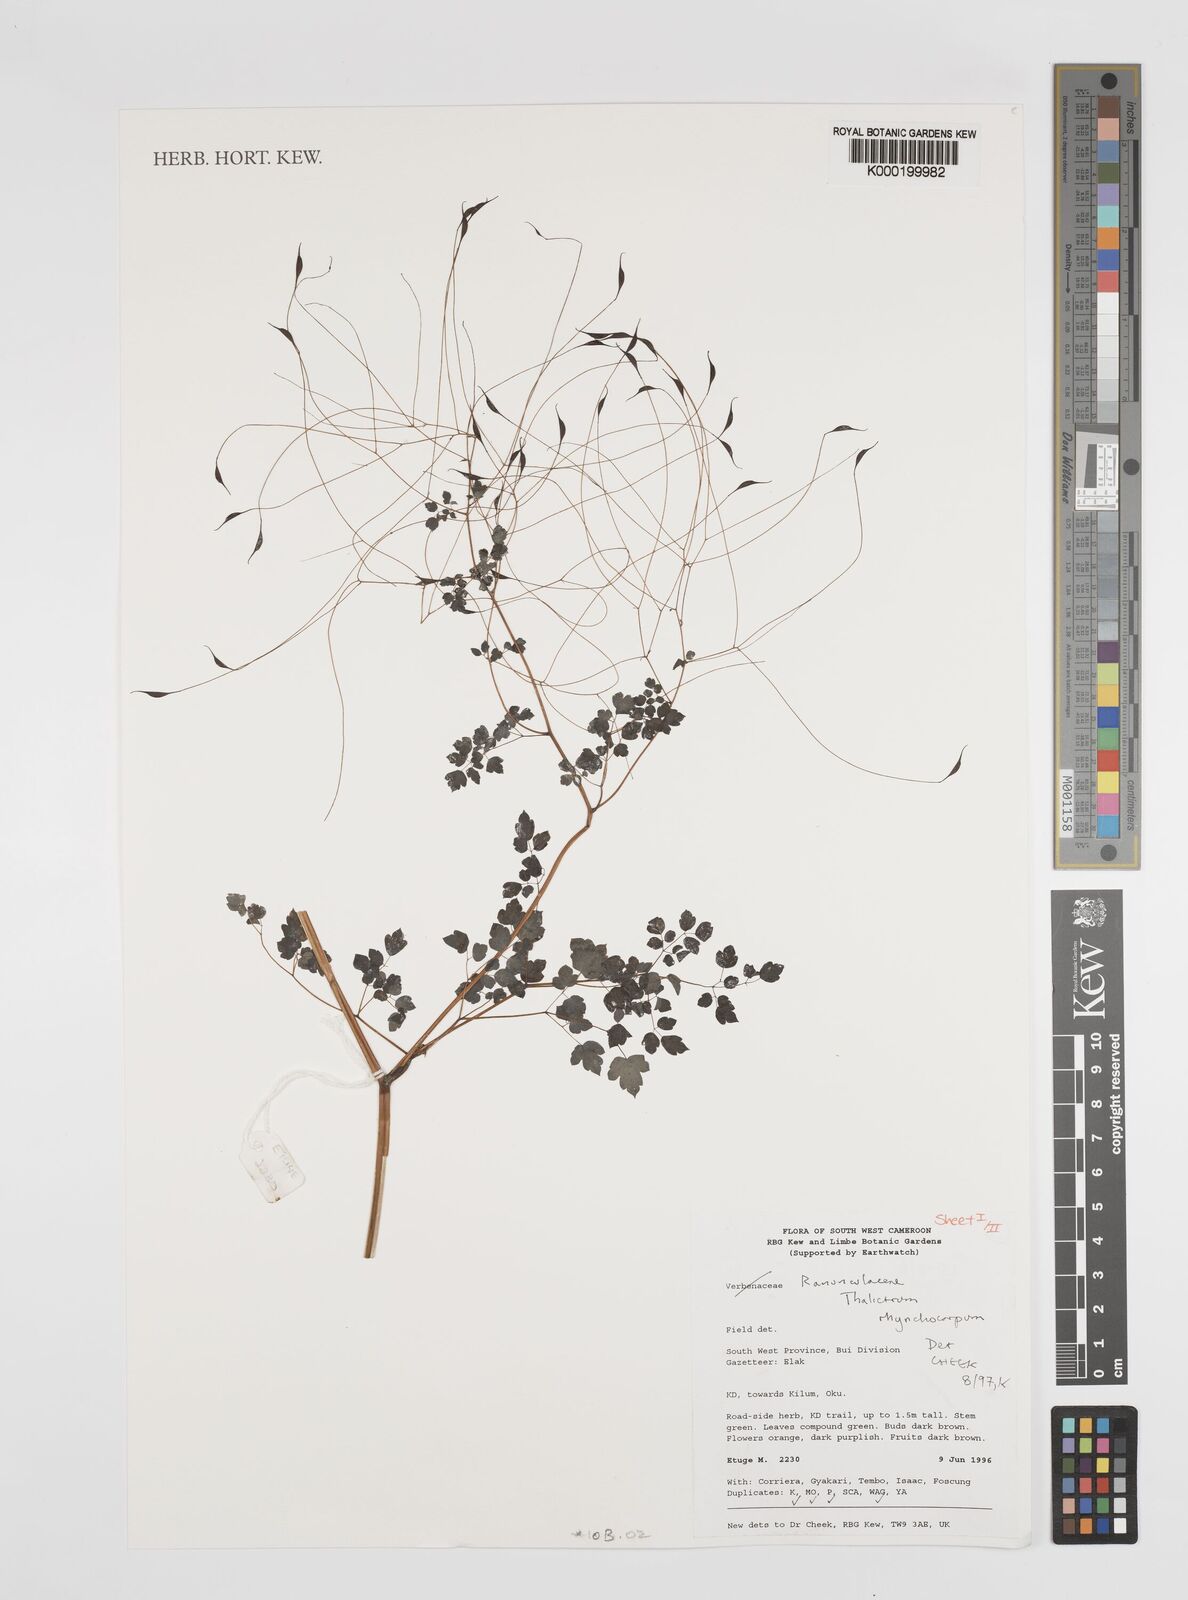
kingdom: Plantae
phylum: Tracheophyta
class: Magnoliopsida
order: Ranunculales
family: Ranunculaceae
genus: Thalictrum
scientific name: Thalictrum rhynchocarpum
